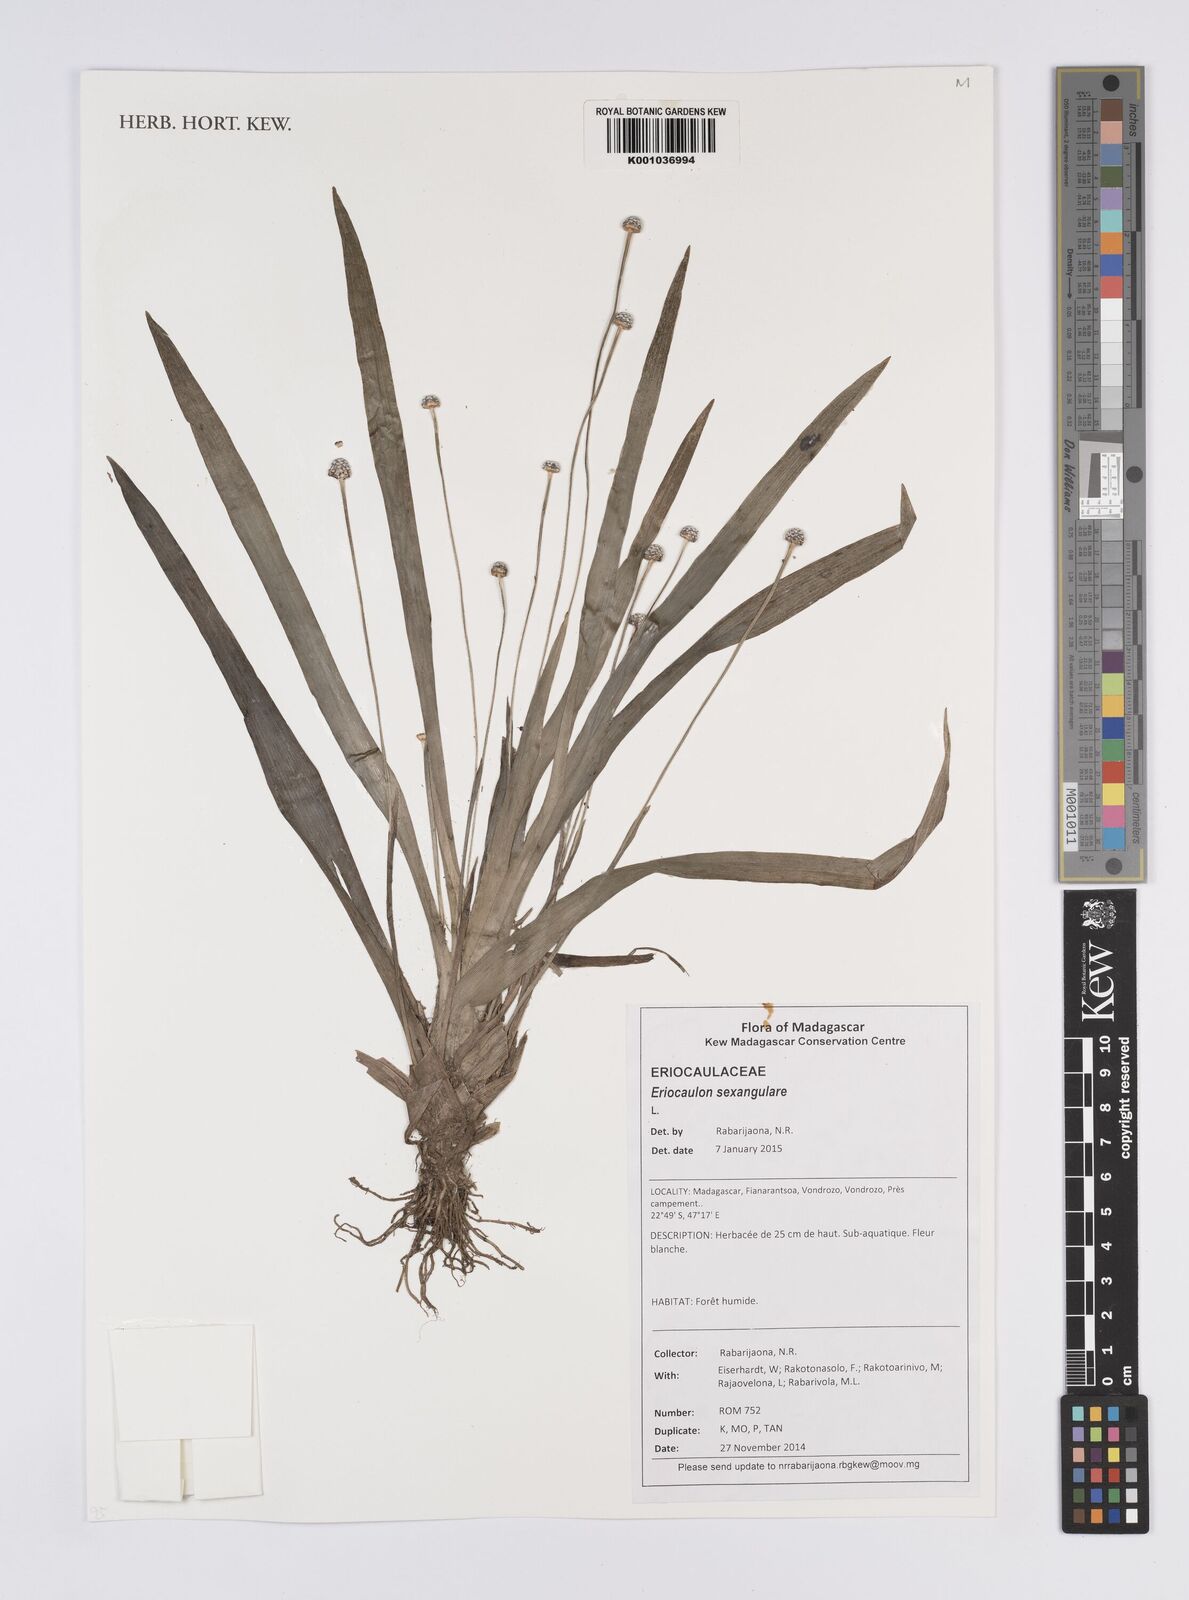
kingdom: Plantae
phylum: Tracheophyta
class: Liliopsida
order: Poales
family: Eriocaulaceae
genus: Eriocaulon
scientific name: Eriocaulon sexangulare
